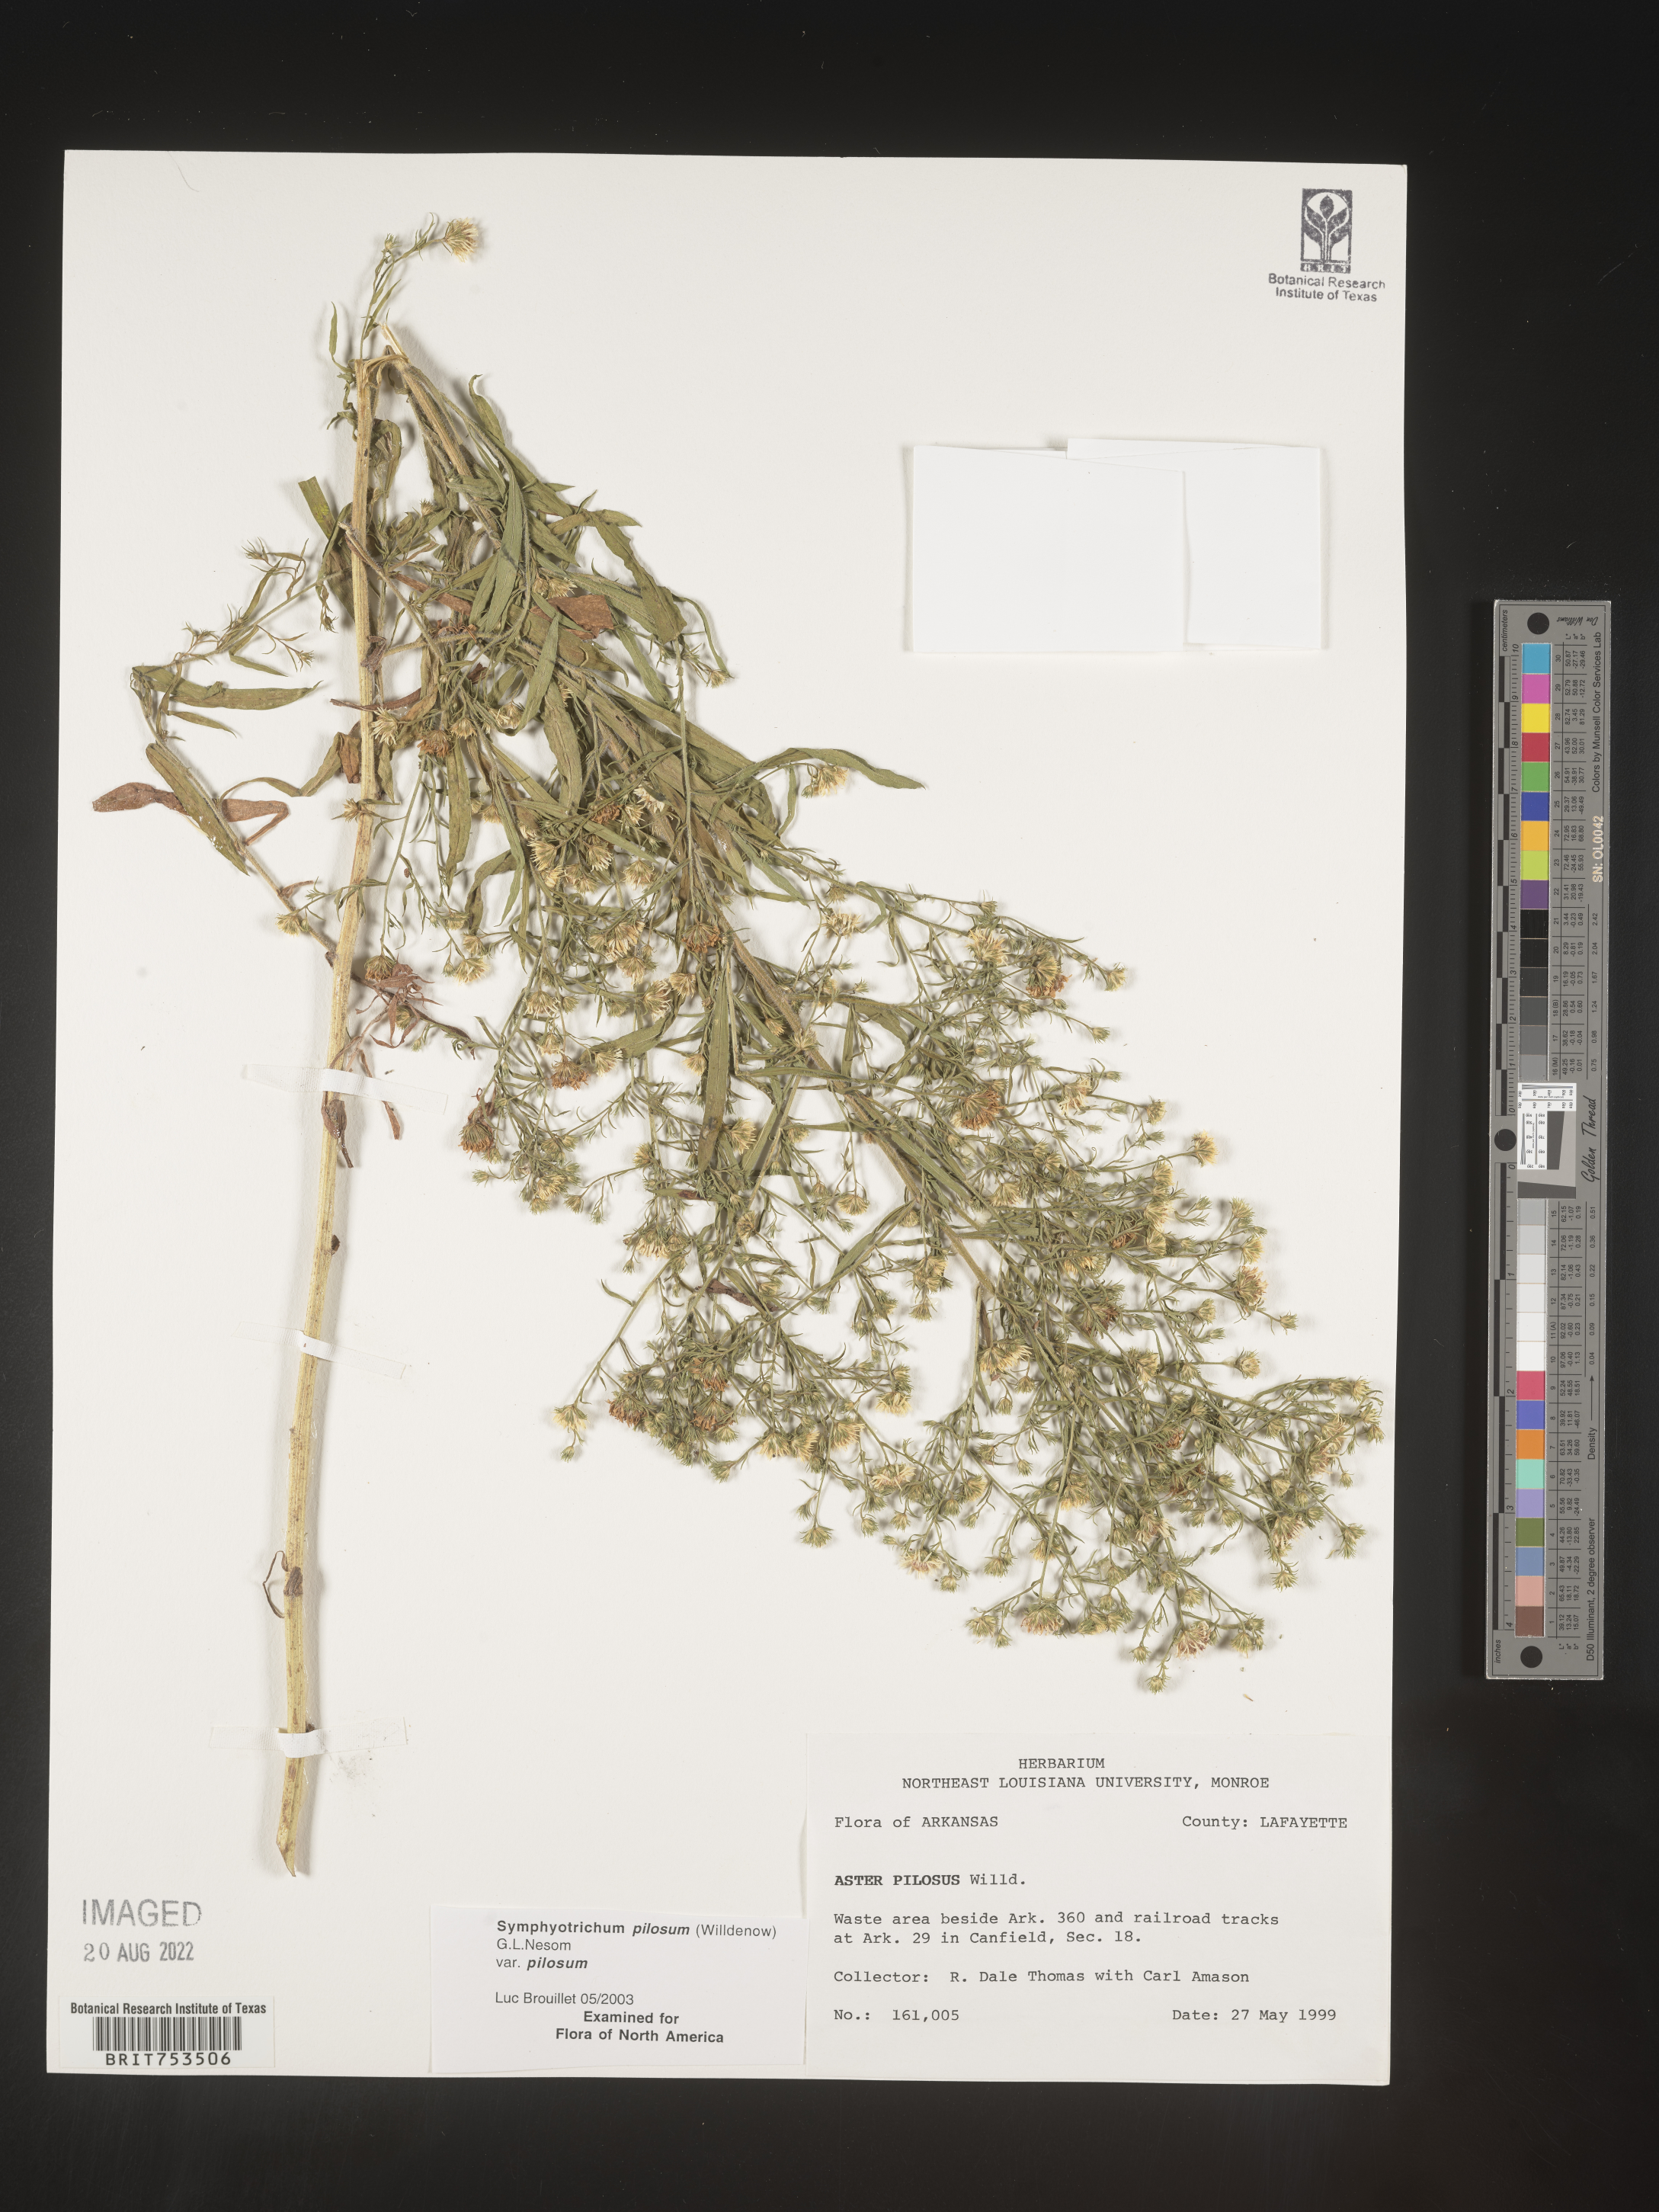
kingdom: Plantae
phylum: Tracheophyta
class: Magnoliopsida
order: Asterales
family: Asteraceae
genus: Symphyotrichum
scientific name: Symphyotrichum pilosum
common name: Awl aster
